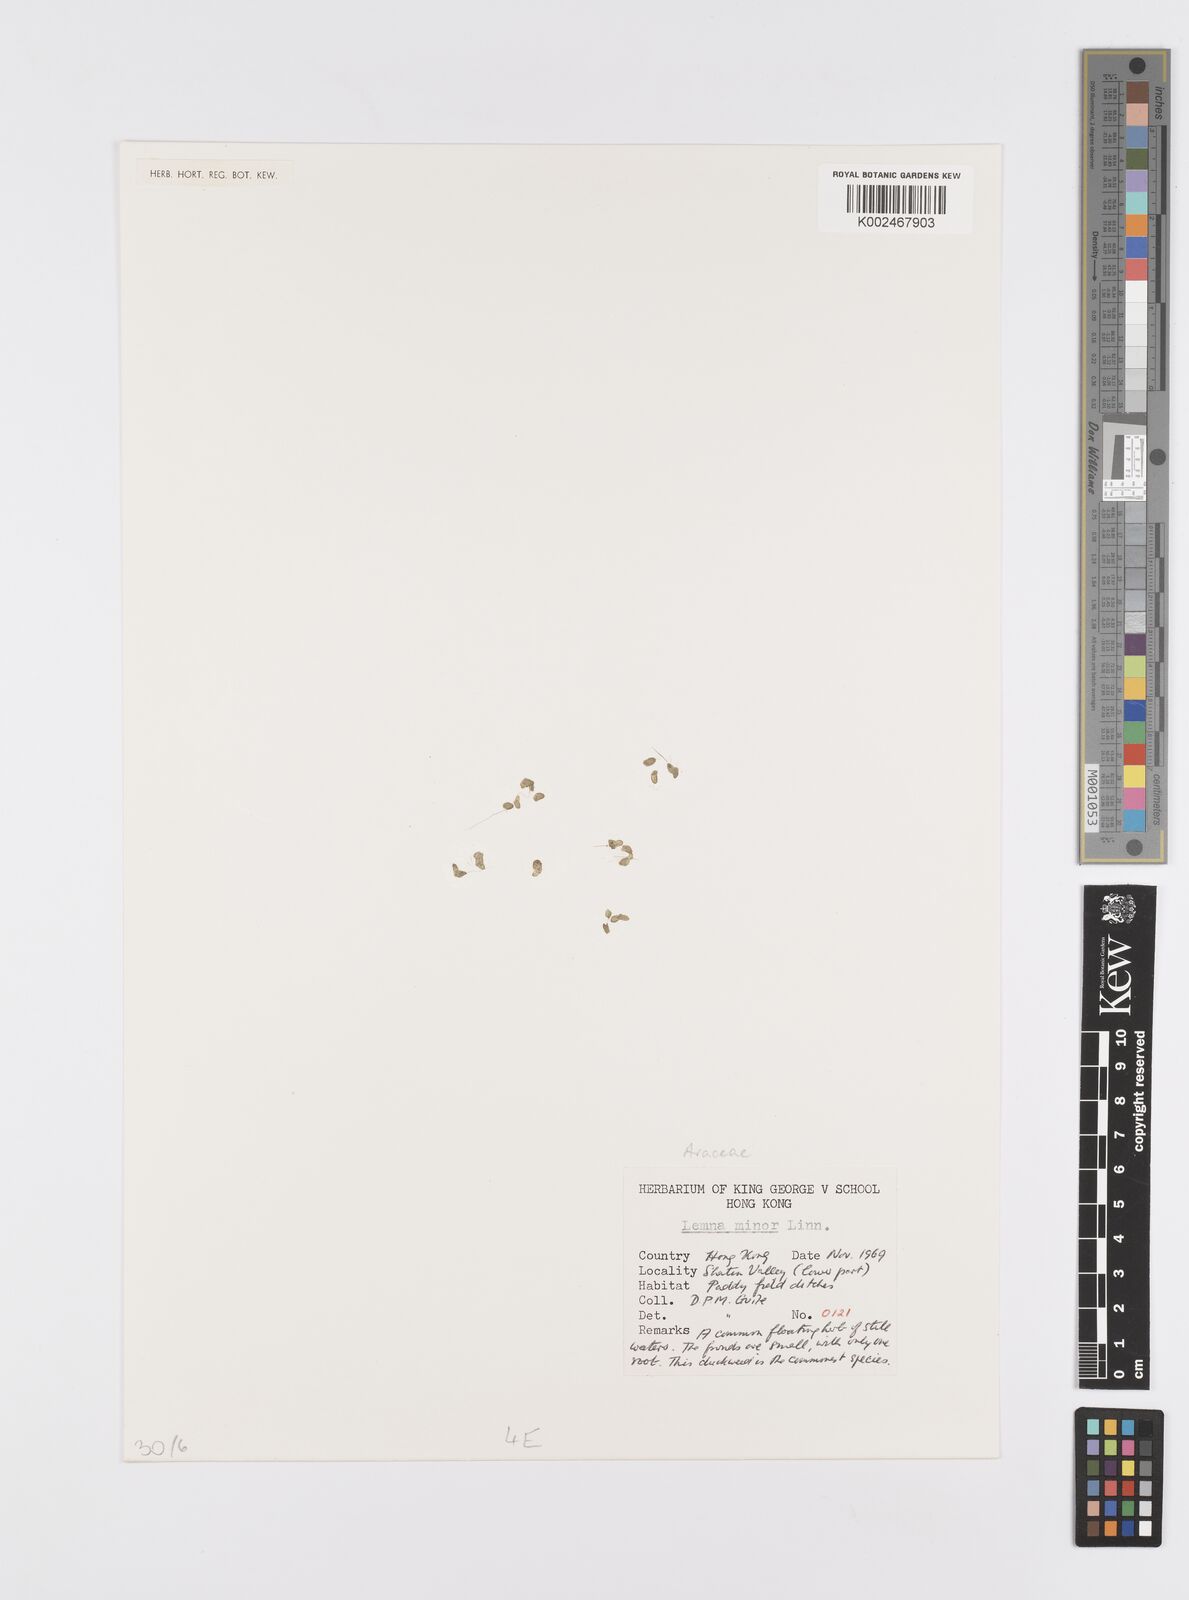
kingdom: Plantae
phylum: Tracheophyta
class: Liliopsida
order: Alismatales
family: Araceae
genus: Lemna
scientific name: Lemna minor
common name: Common duckweed
